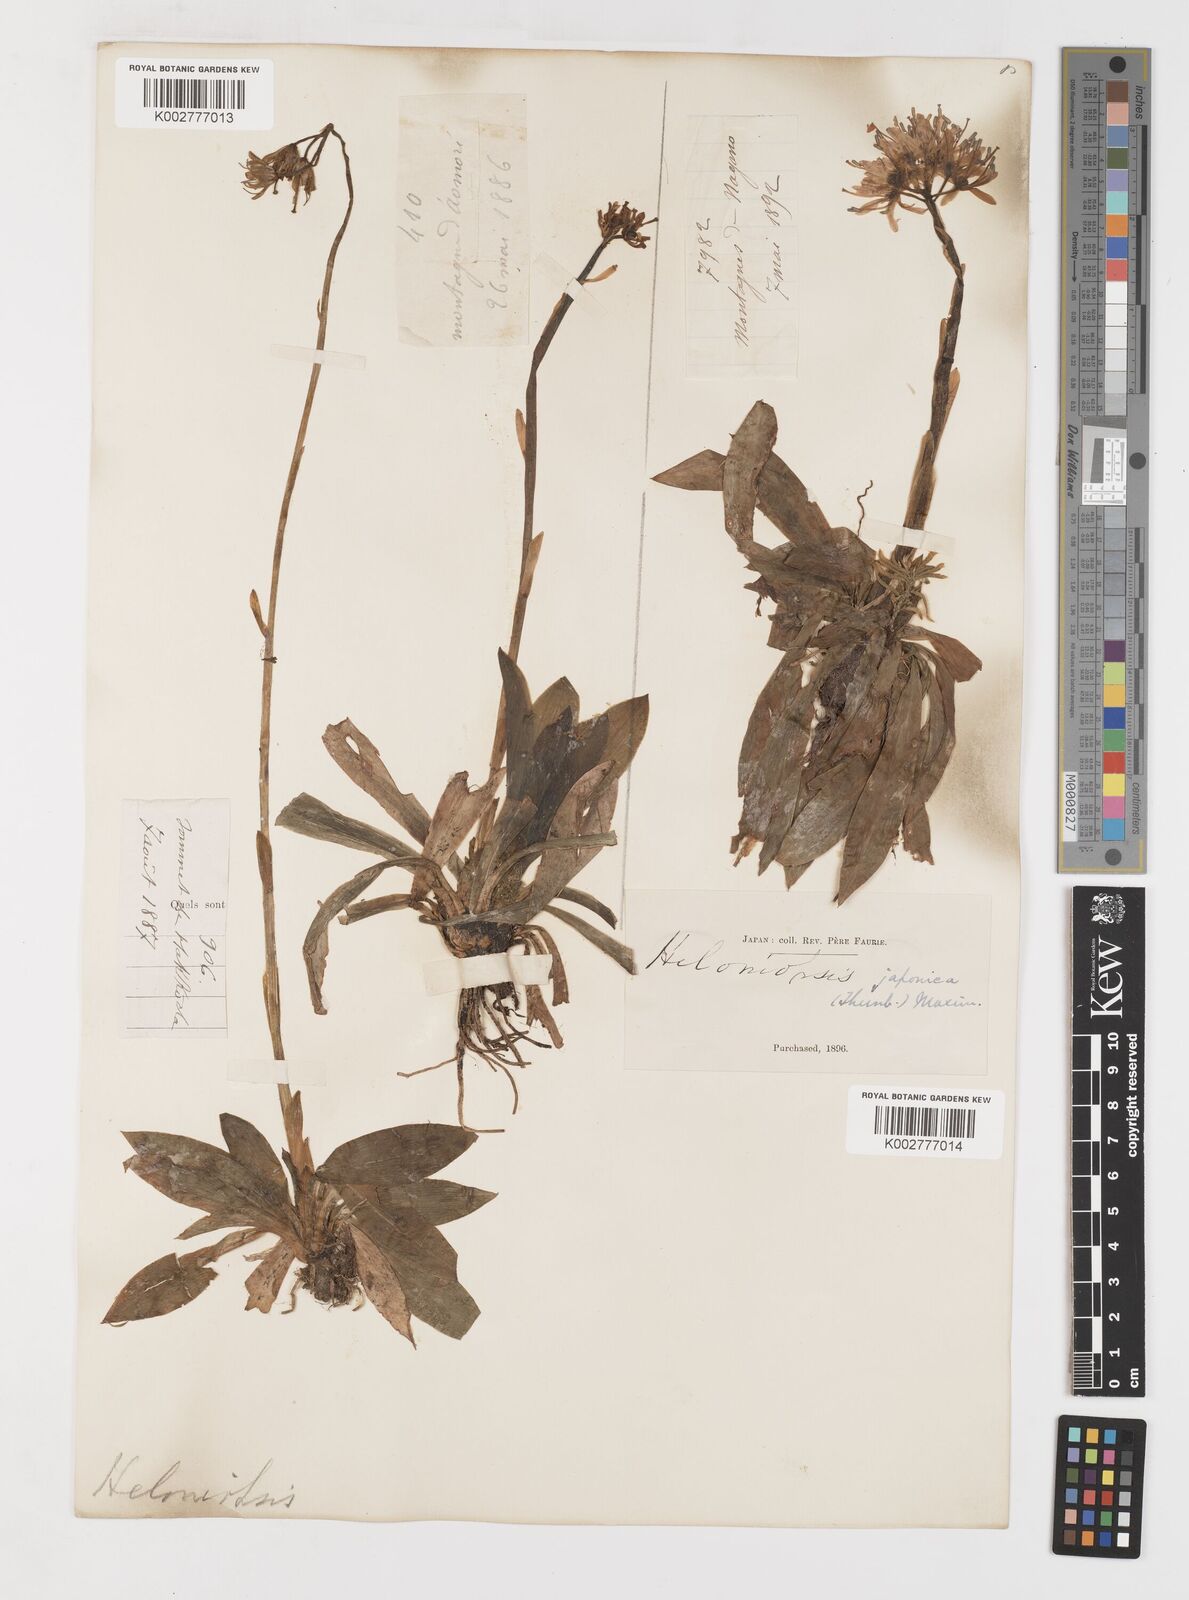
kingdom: Plantae
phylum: Tracheophyta
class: Liliopsida
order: Liliales
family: Melanthiaceae
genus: Helonias
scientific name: Helonias orientalis
